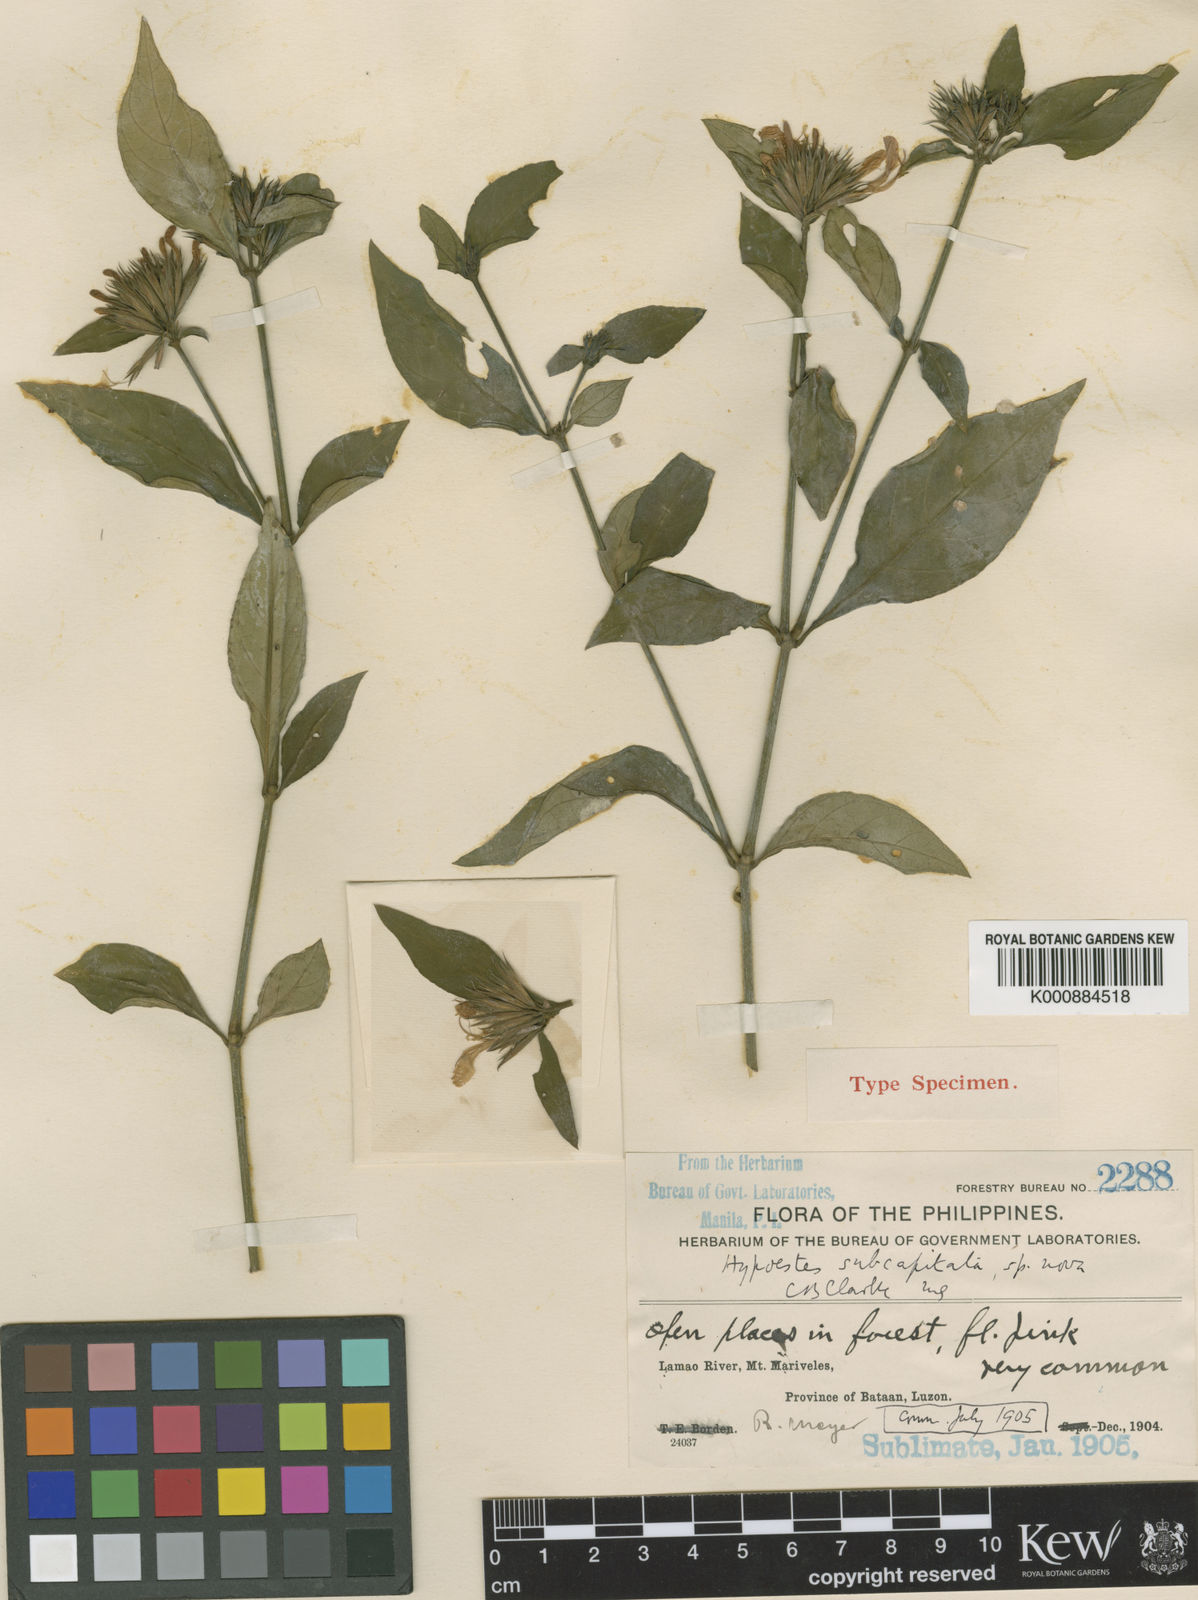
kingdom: Plantae
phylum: Tracheophyta
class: Magnoliopsida
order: Lamiales
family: Acanthaceae
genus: Hypoestes
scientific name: Hypoestes subcapitata
